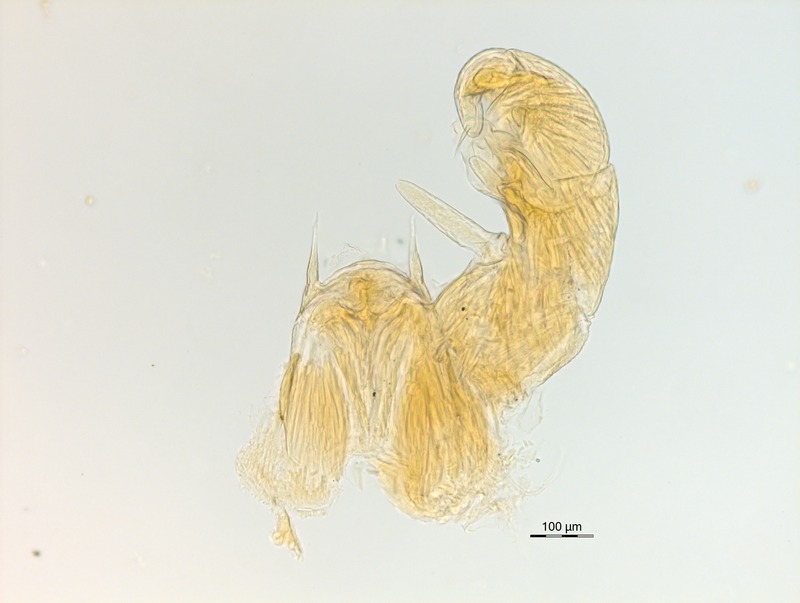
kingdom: Animalia
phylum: Arthropoda
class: Diplopoda
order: Glomerida
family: Glomeridae
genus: Trachysphaera
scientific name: Trachysphaera apenninorum
